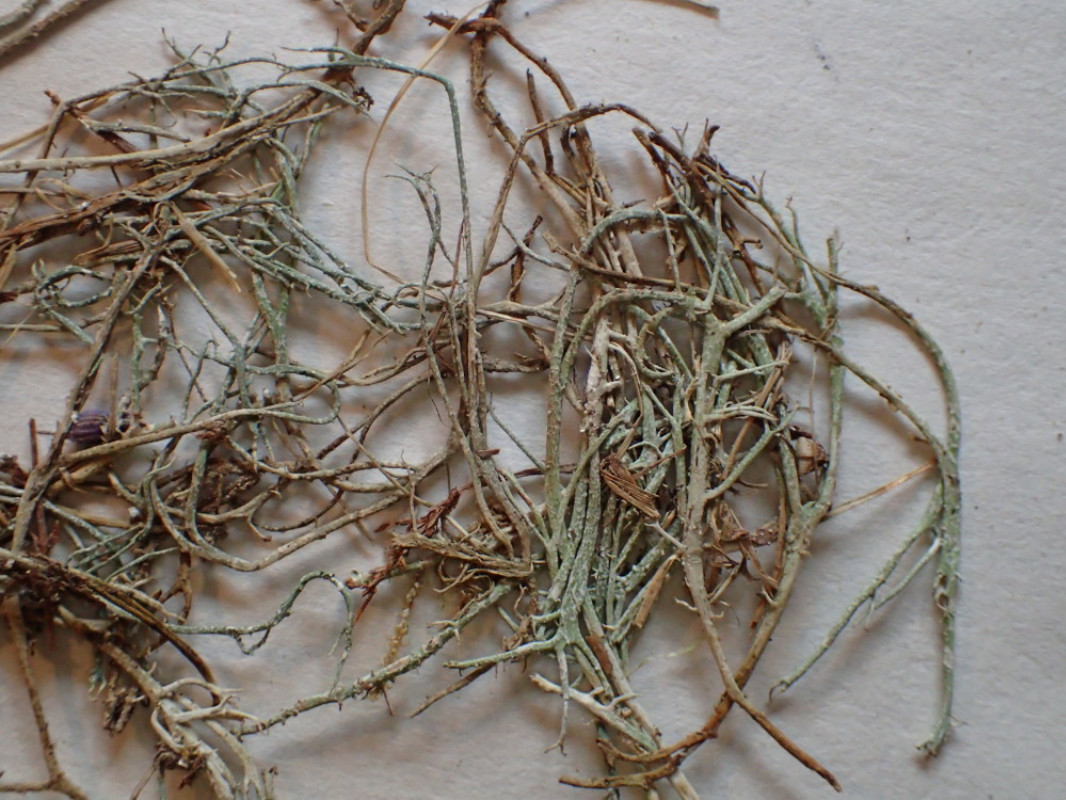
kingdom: Fungi
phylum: Ascomycota
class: Lecanoromycetes
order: Lecanorales
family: Cladoniaceae
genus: Cladonia
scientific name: Cladonia furcata
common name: kløftet bægerlav
